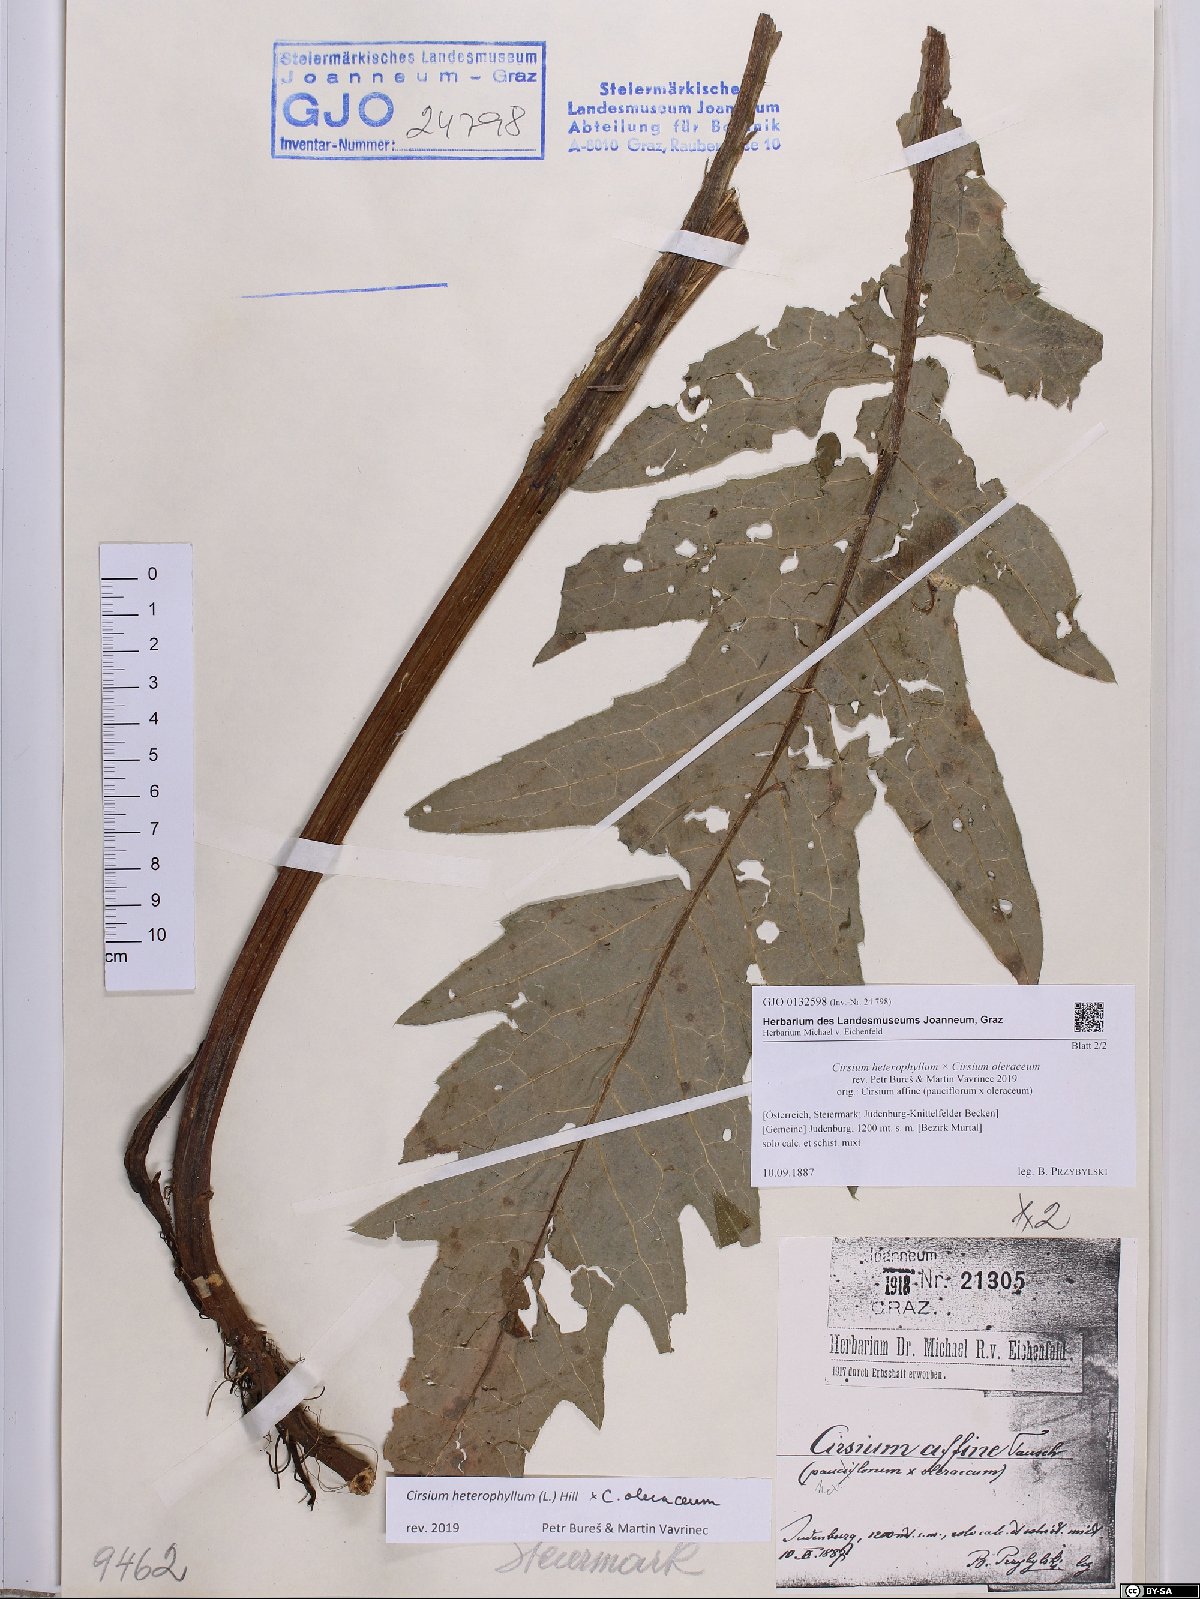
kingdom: Plantae
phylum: Tracheophyta
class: Magnoliopsida
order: Asterales
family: Asteraceae
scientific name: Asteraceae
